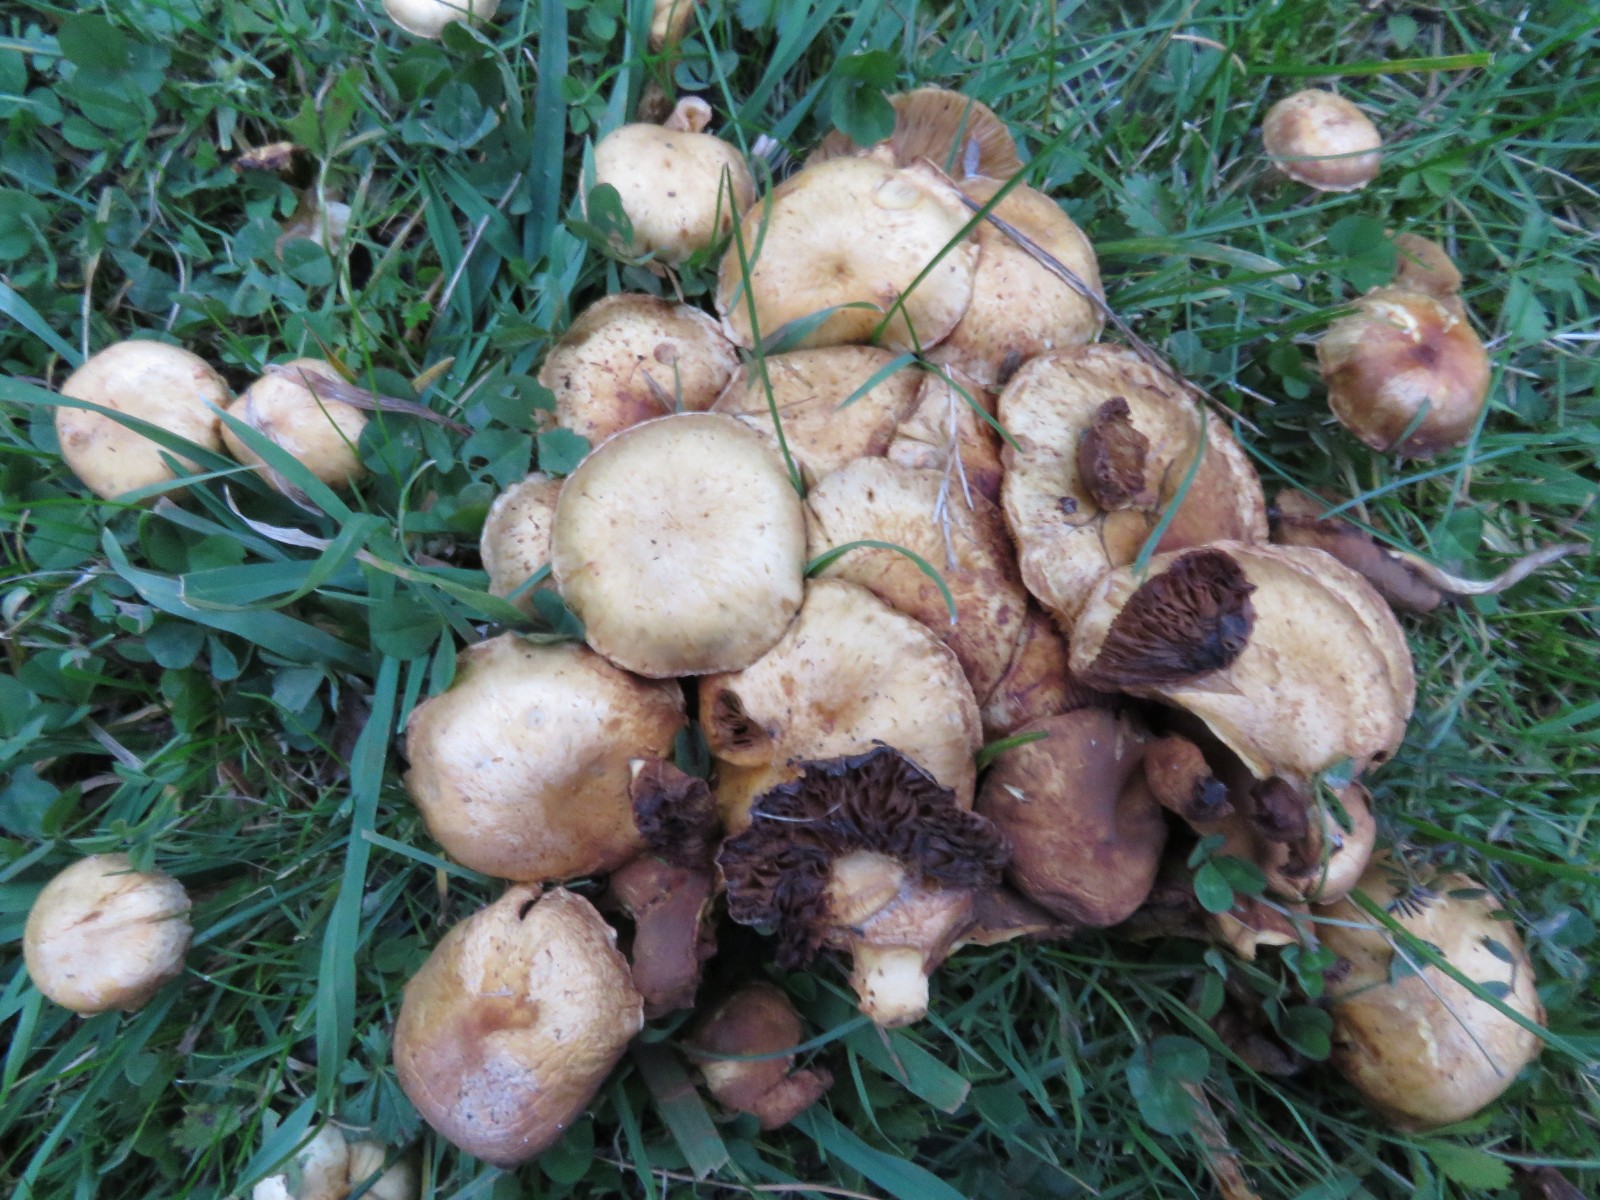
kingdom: Fungi
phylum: Basidiomycota
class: Agaricomycetes
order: Agaricales
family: Strophariaceae
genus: Pholiota
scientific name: Pholiota gummosa
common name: grøngul skælhat
